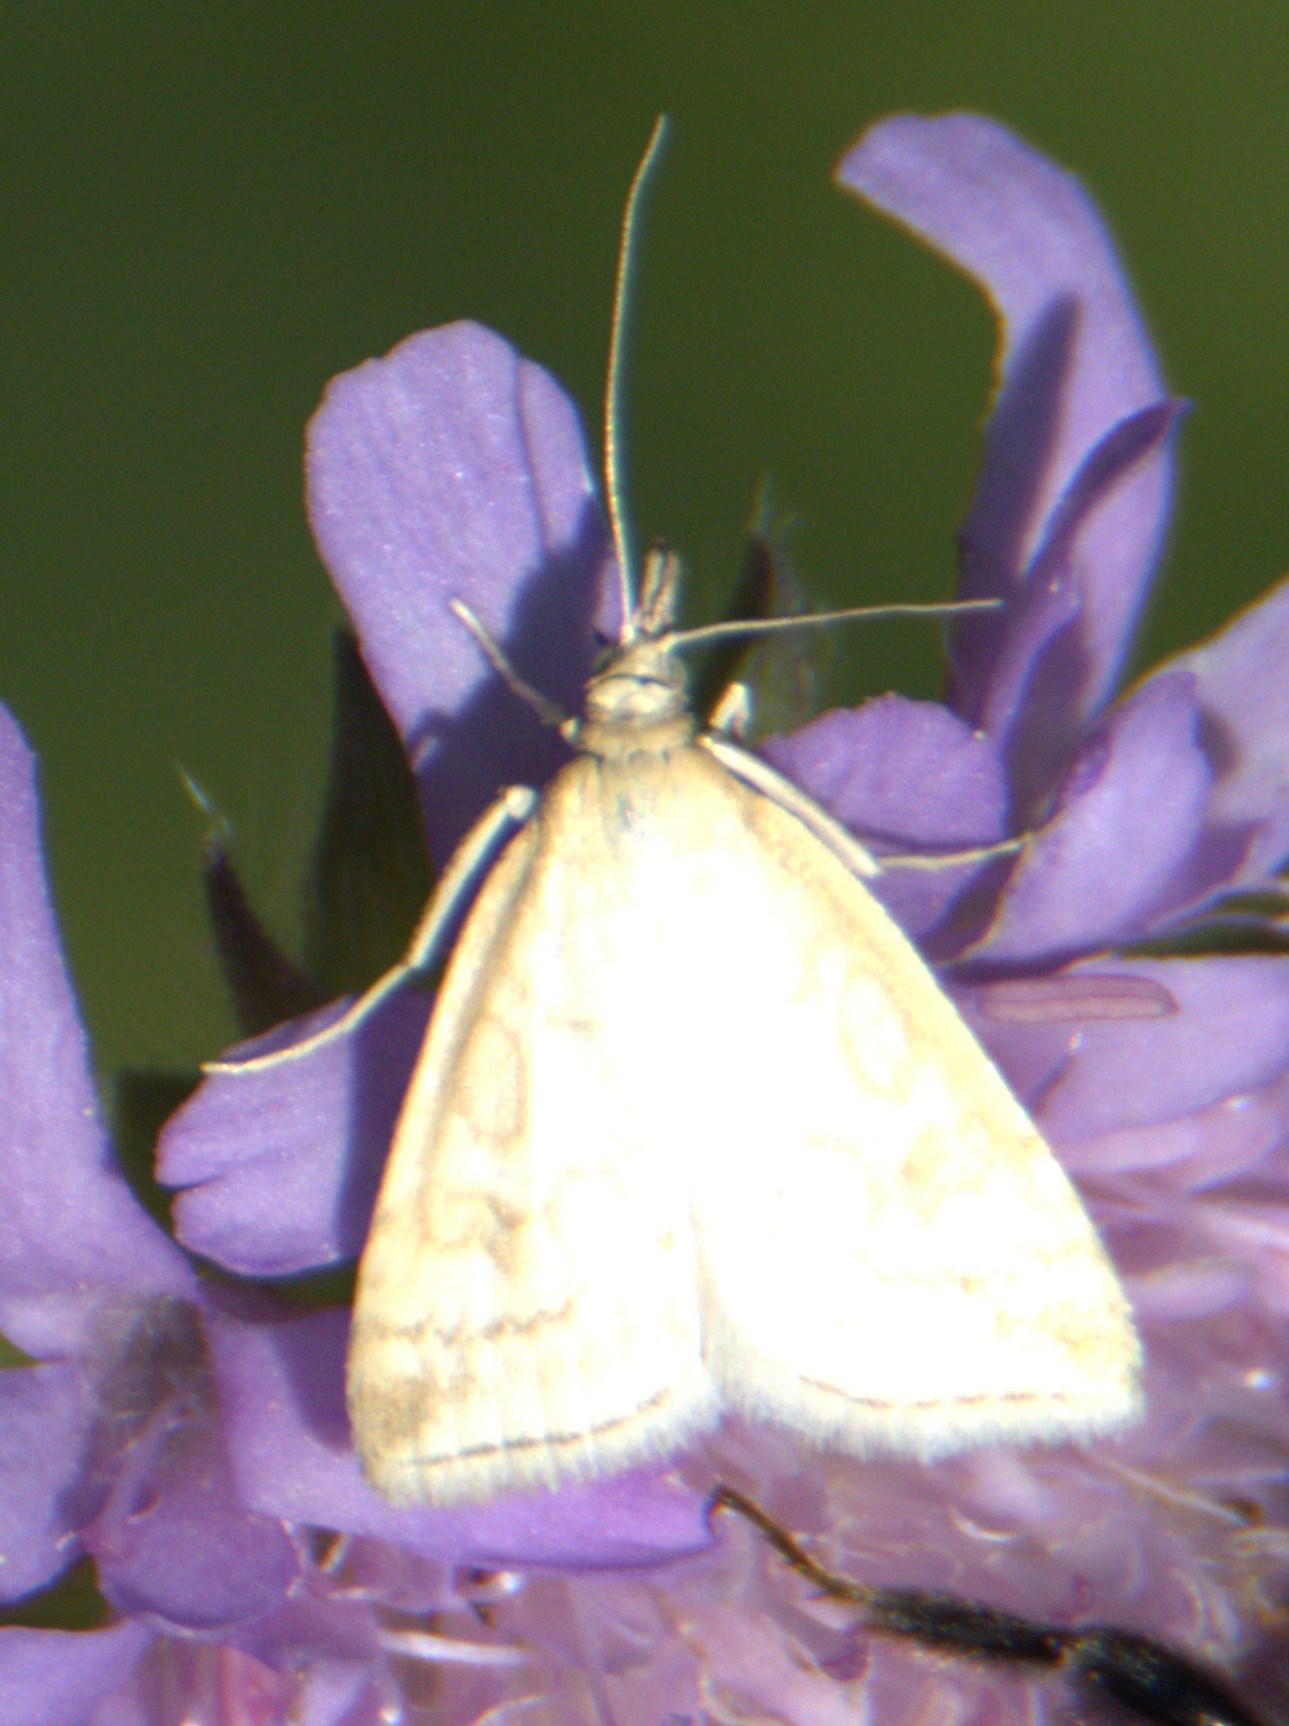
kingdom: Animalia
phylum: Arthropoda
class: Insecta
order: Lepidoptera
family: Crambidae
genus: Udea
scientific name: Udea lutealis
